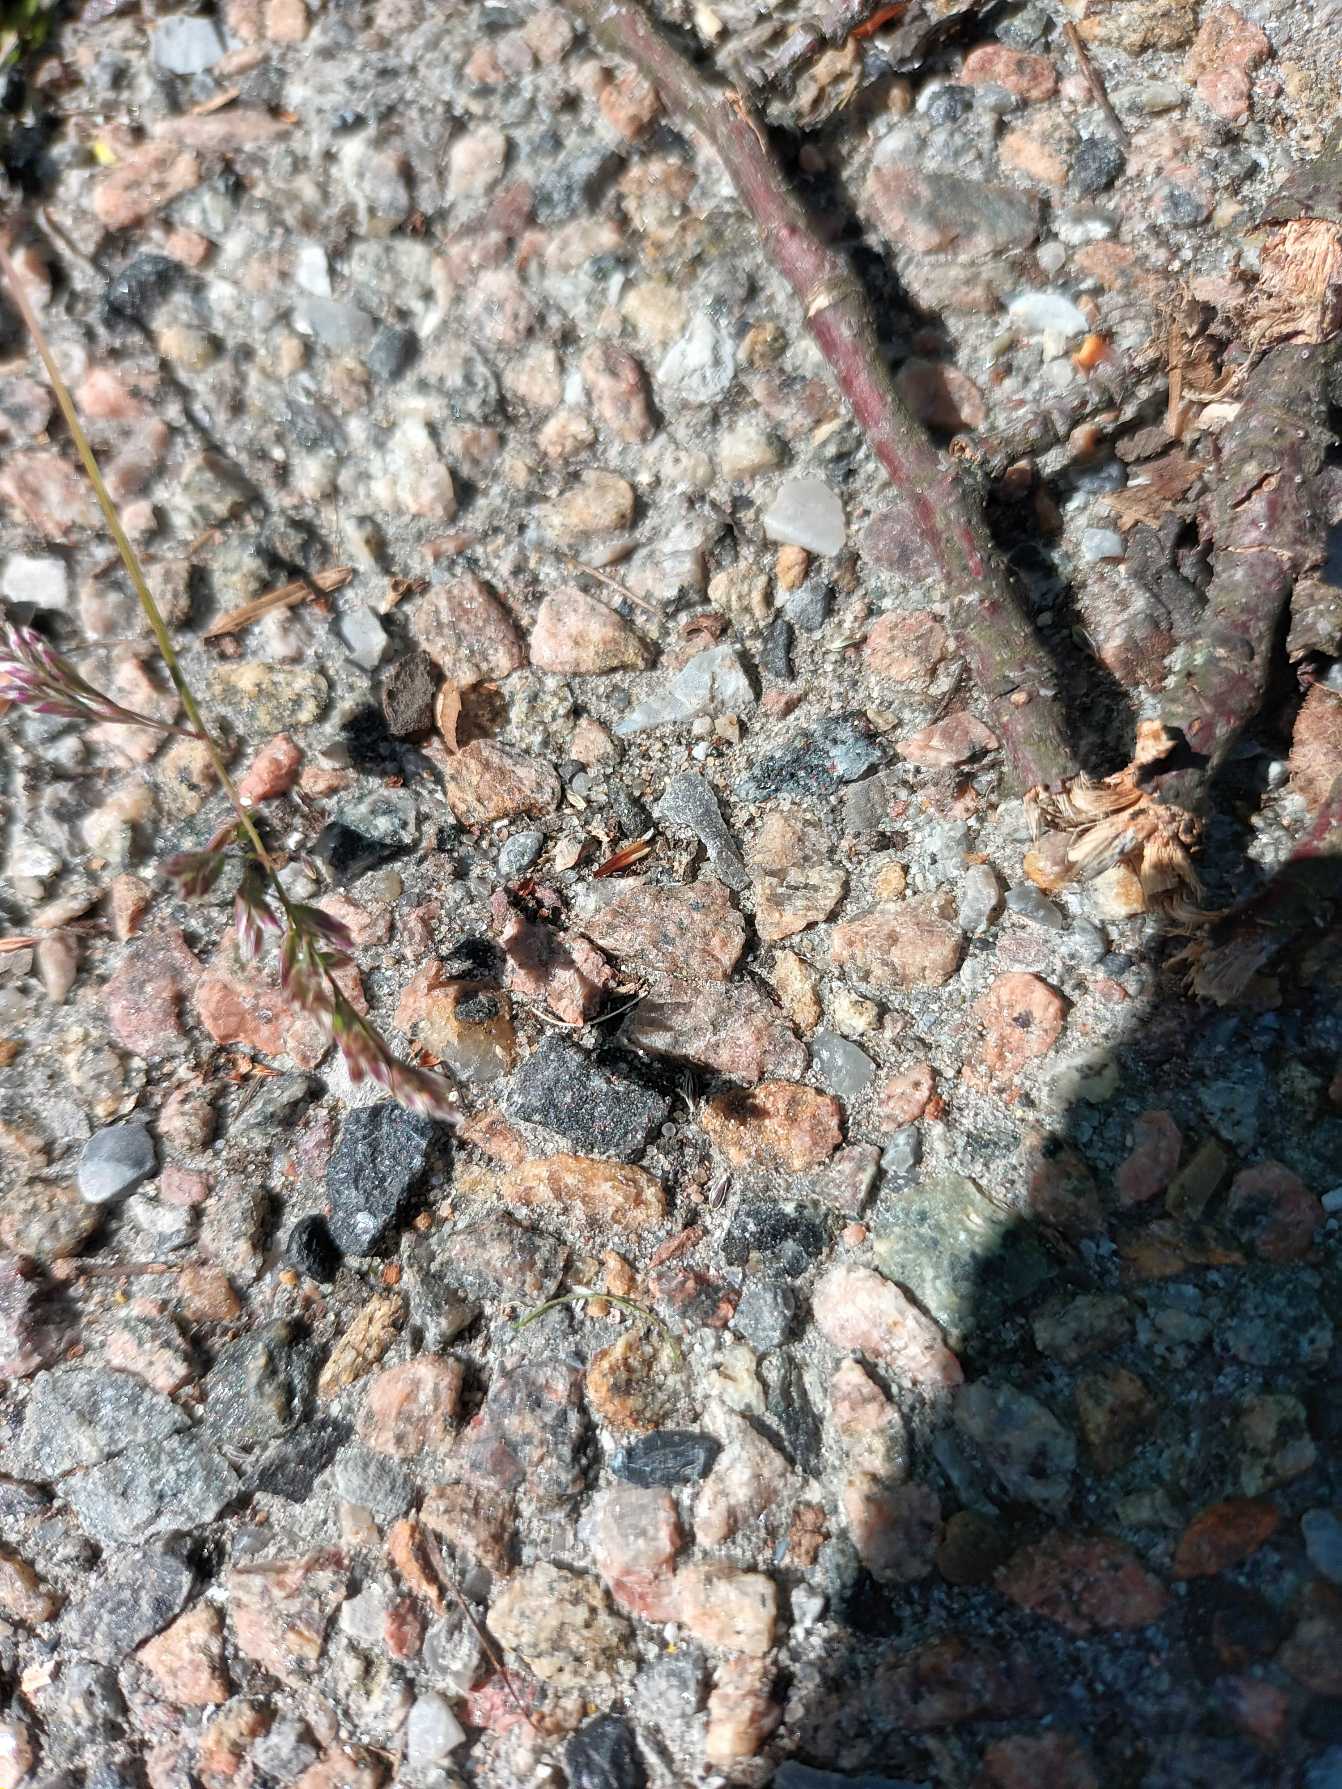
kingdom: Plantae
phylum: Tracheophyta
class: Liliopsida
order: Poales
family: Poaceae
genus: Poa
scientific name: Poa annua
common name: Enårig rapgræs
